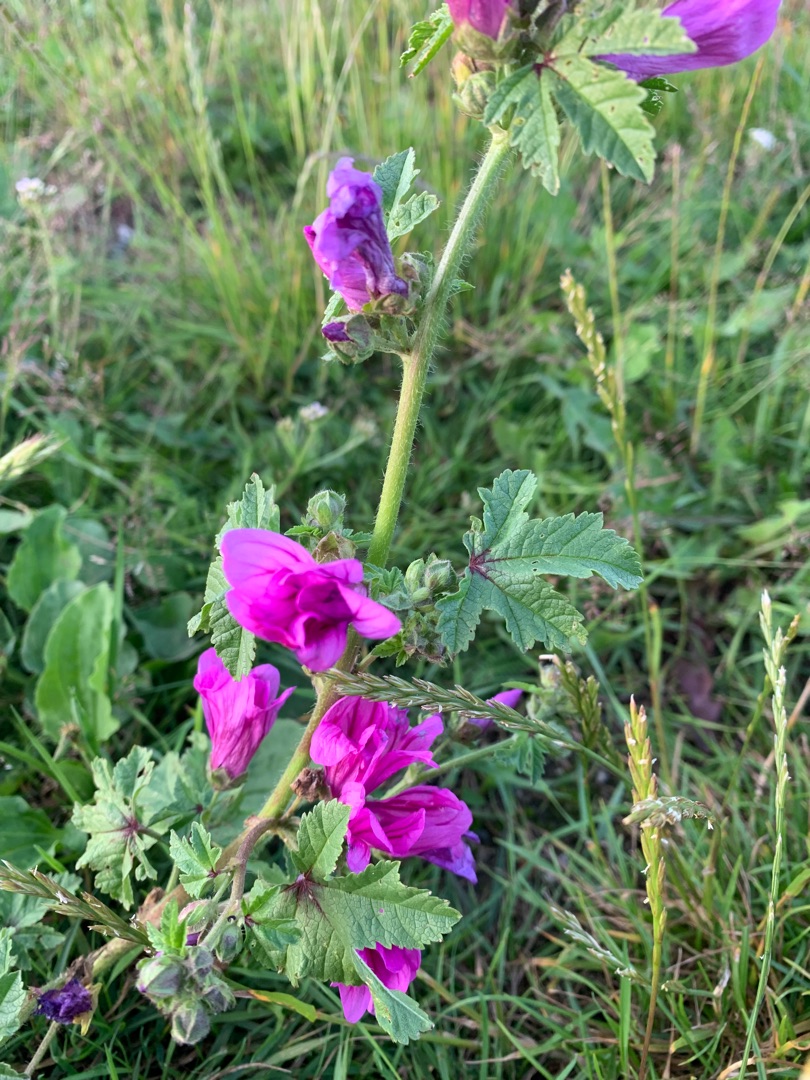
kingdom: Plantae
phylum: Tracheophyta
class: Magnoliopsida
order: Malvales
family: Malvaceae
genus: Malva
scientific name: Malva sylvestris
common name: Almindelig katost
